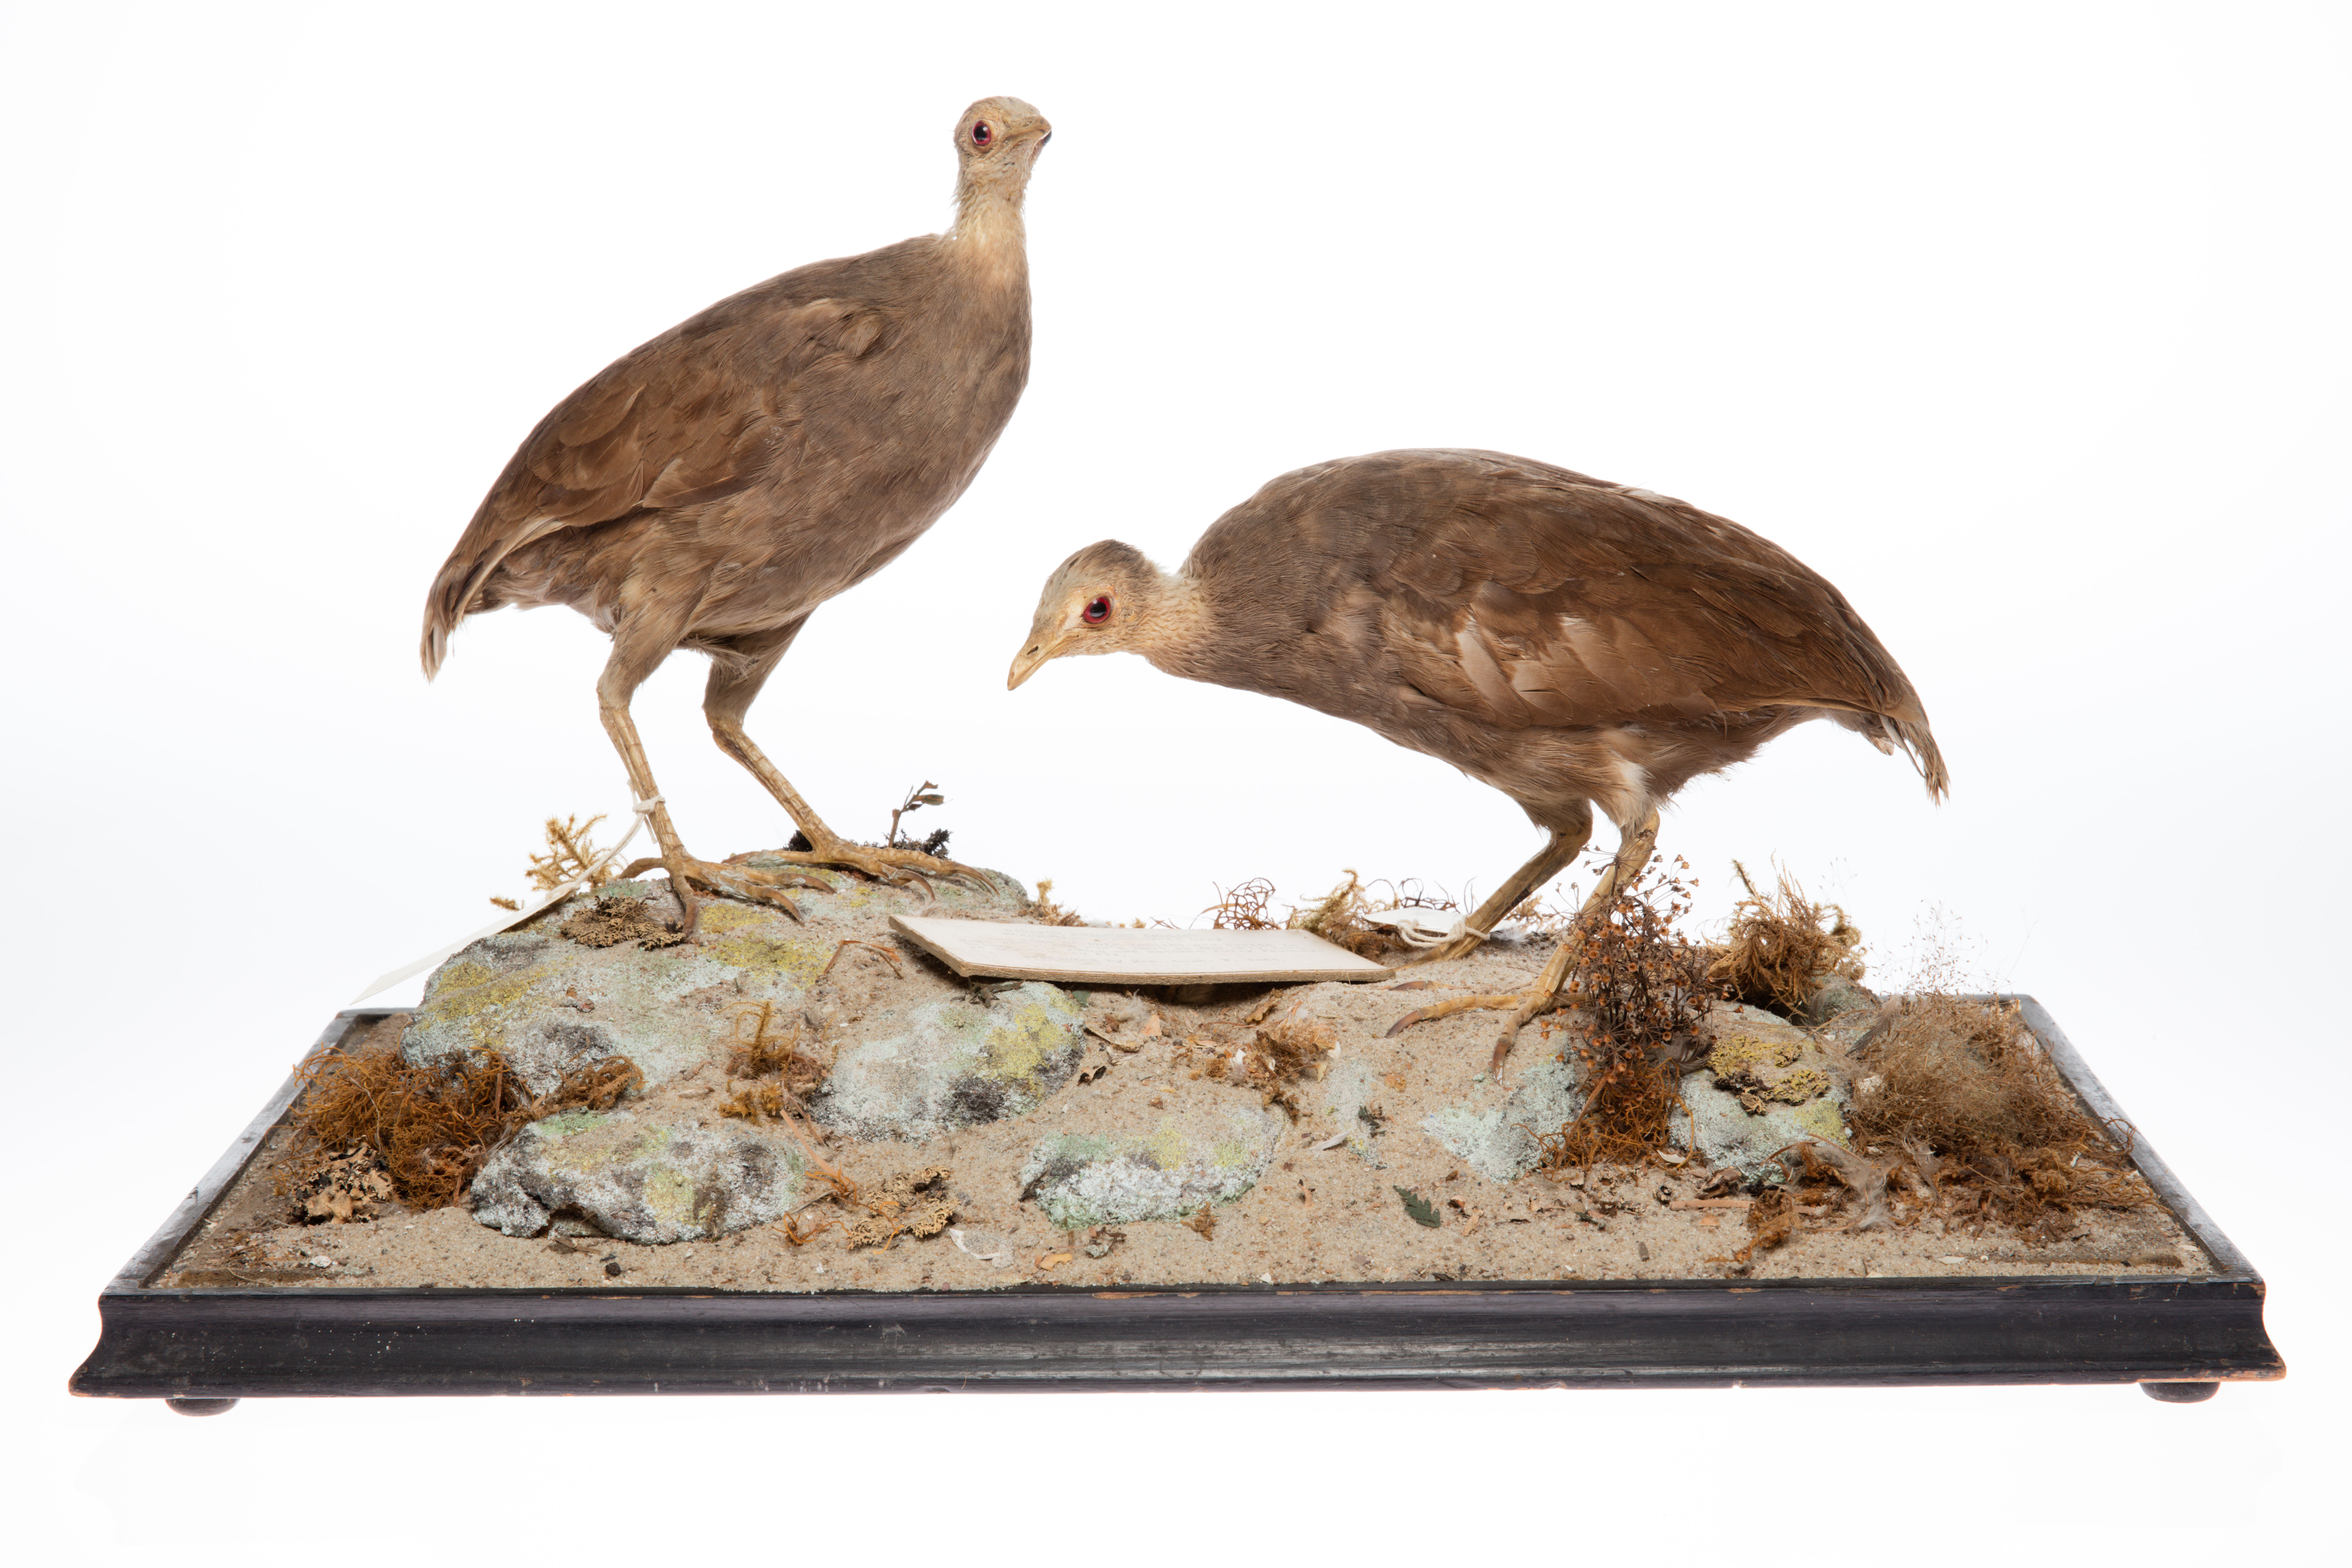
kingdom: Animalia
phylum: Chordata
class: Aves
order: Galliformes
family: Megapodiidae
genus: Megapodius
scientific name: Megapodius pritchardii
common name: Tongan megapode
